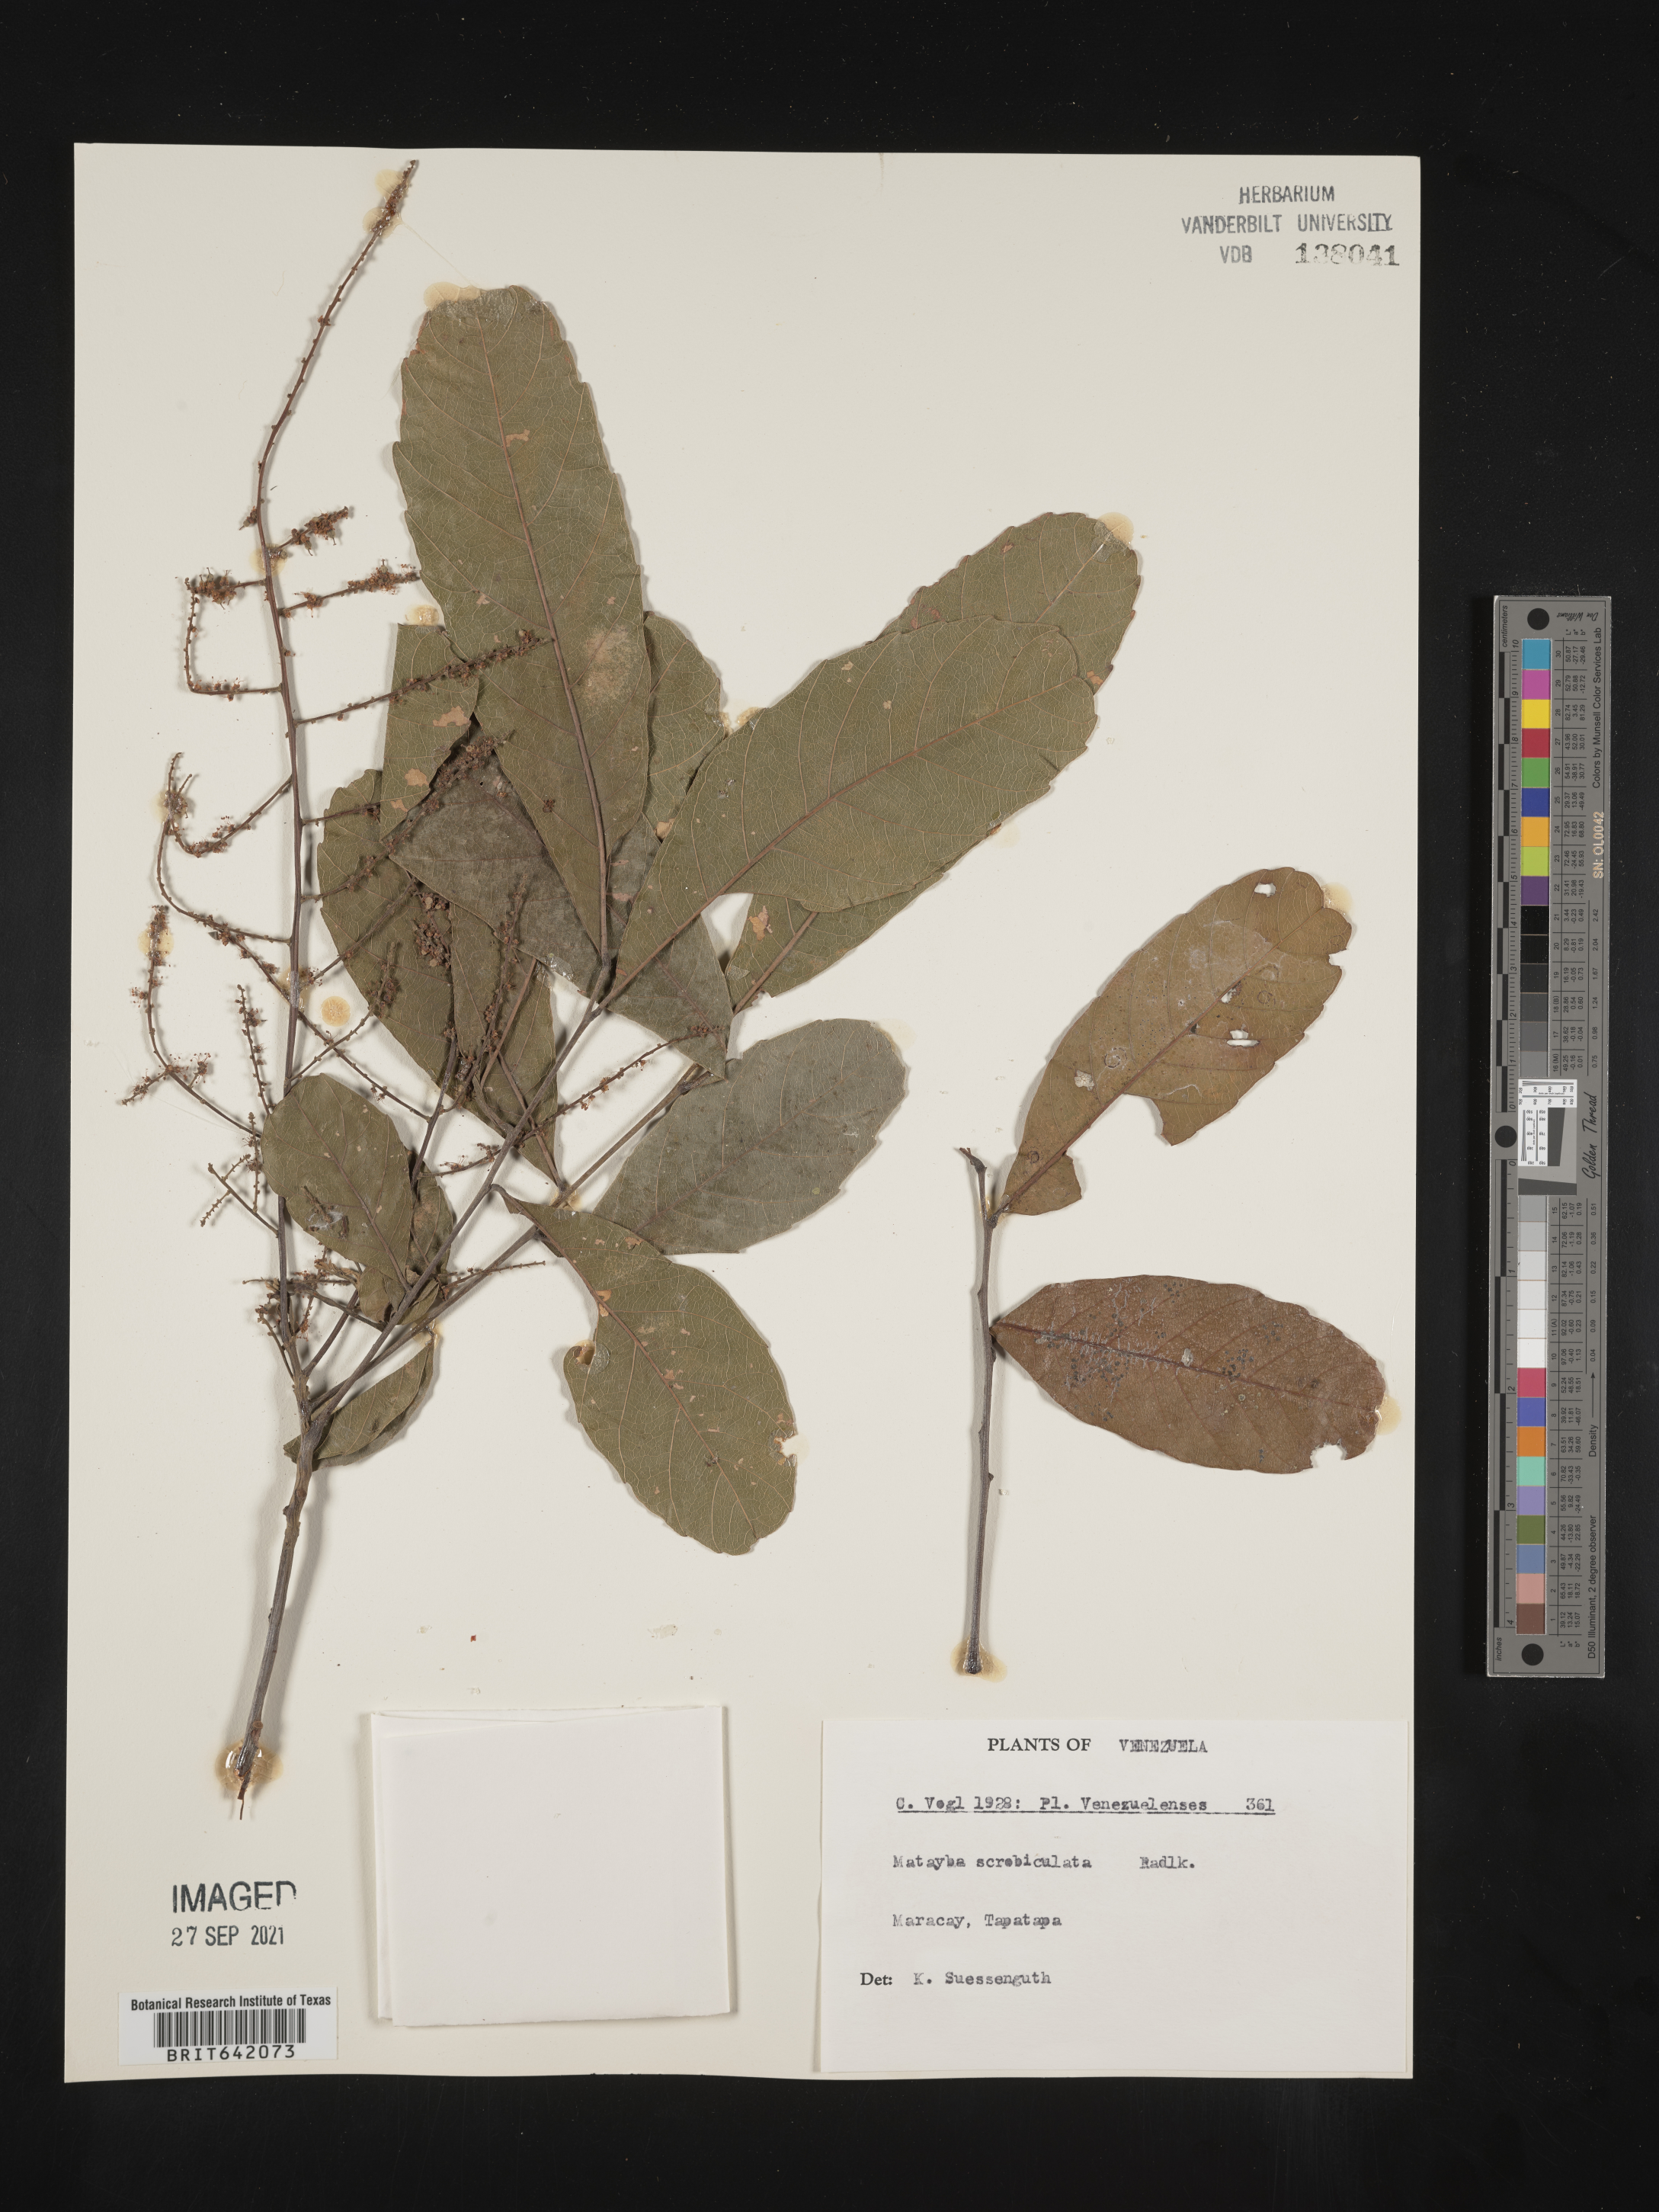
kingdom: Plantae
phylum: Tracheophyta
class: Magnoliopsida
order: Sapindales
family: Sapindaceae
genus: Matayba
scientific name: Matayba
